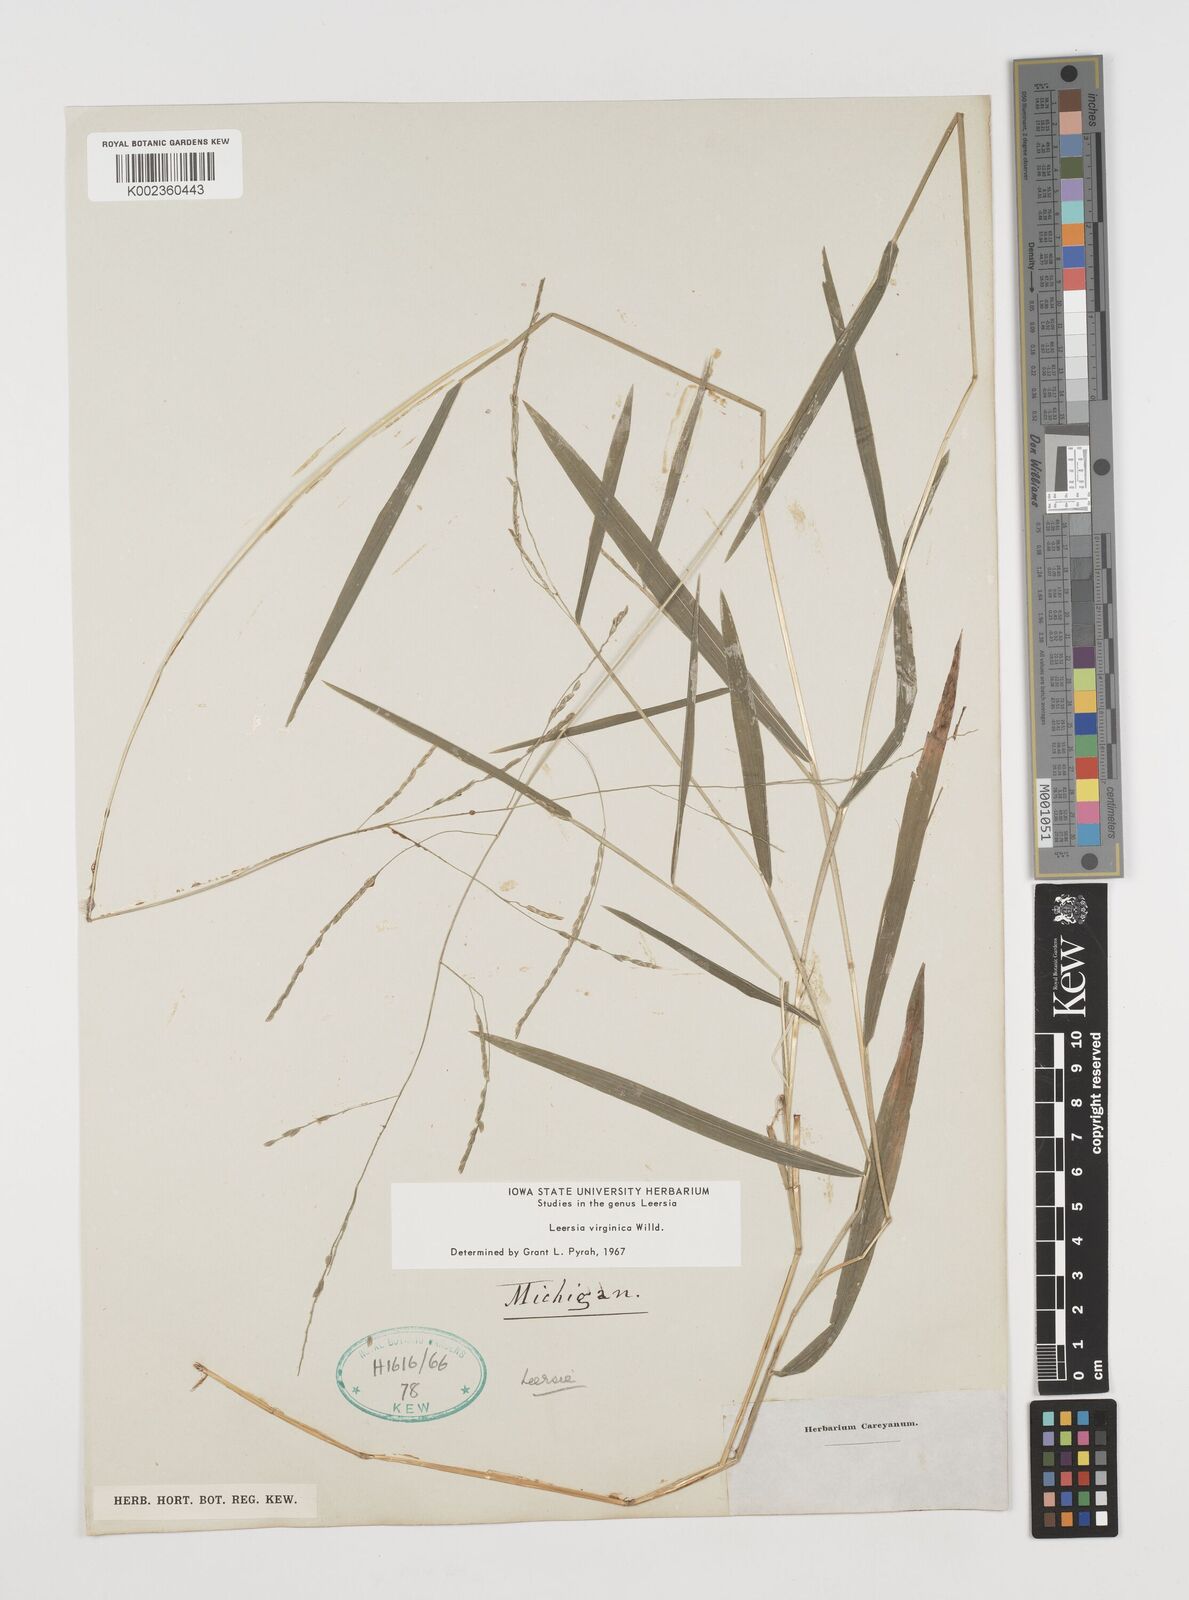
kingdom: Plantae
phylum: Tracheophyta
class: Liliopsida
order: Poales
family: Poaceae
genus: Leersia
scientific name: Leersia virginica
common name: White cutgrass
